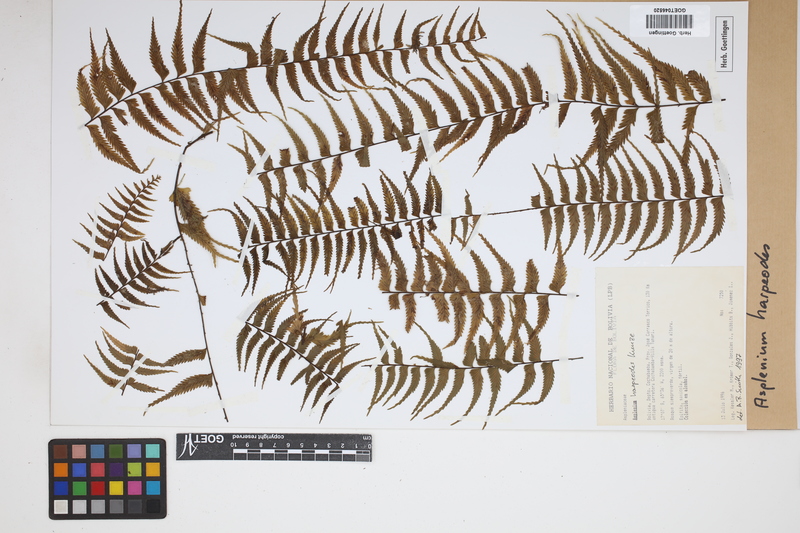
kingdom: Plantae
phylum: Tracheophyta
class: Polypodiopsida
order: Polypodiales
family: Aspleniaceae
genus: Asplenium
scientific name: Asplenium harpeodes
